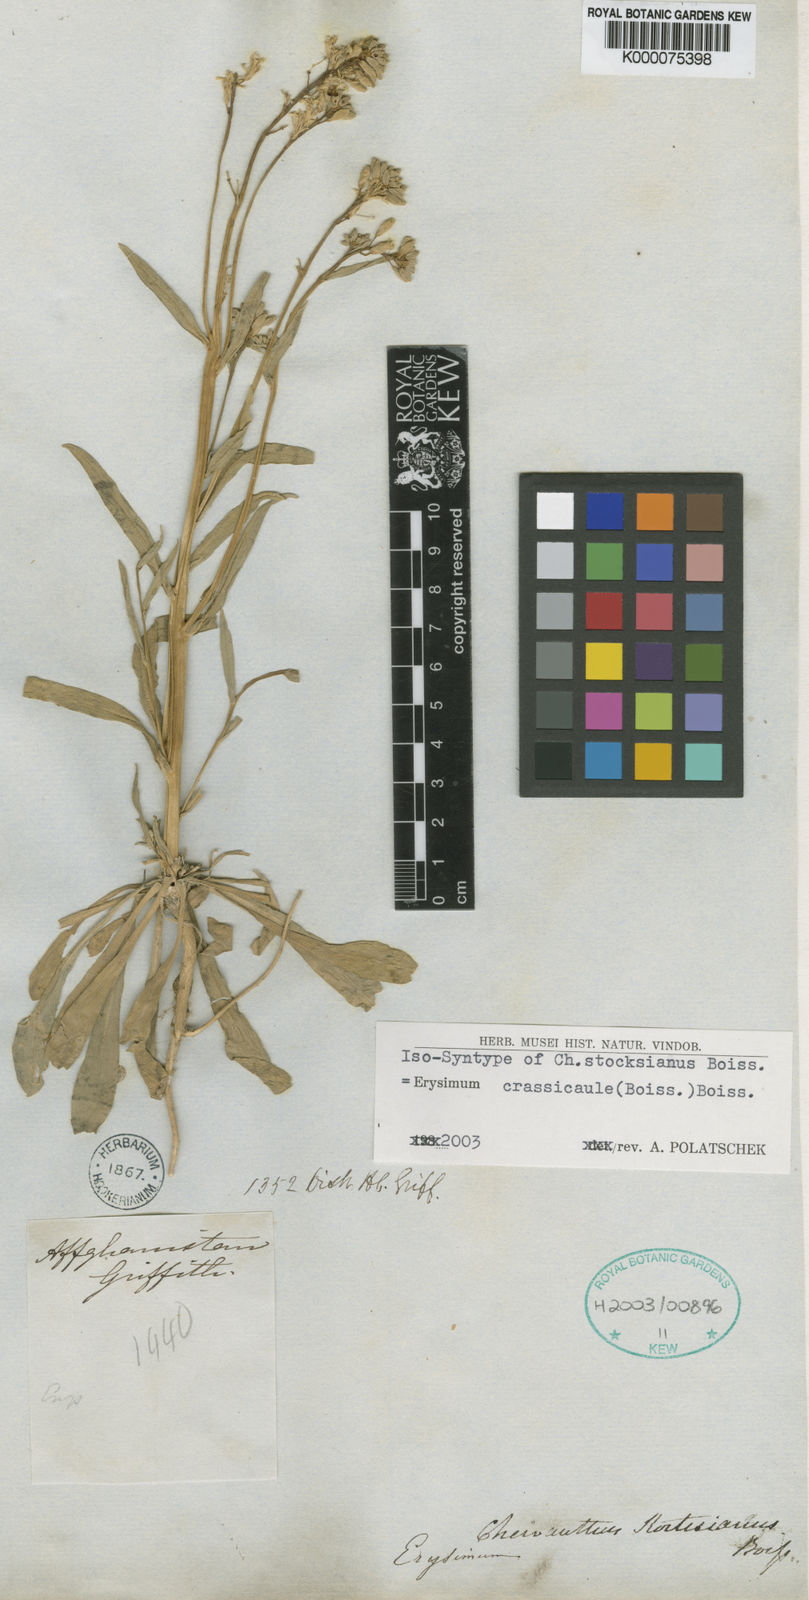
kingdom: Plantae
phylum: Tracheophyta
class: Magnoliopsida
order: Brassicales
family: Brassicaceae
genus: Erysimum
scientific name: Erysimum crassicaule
